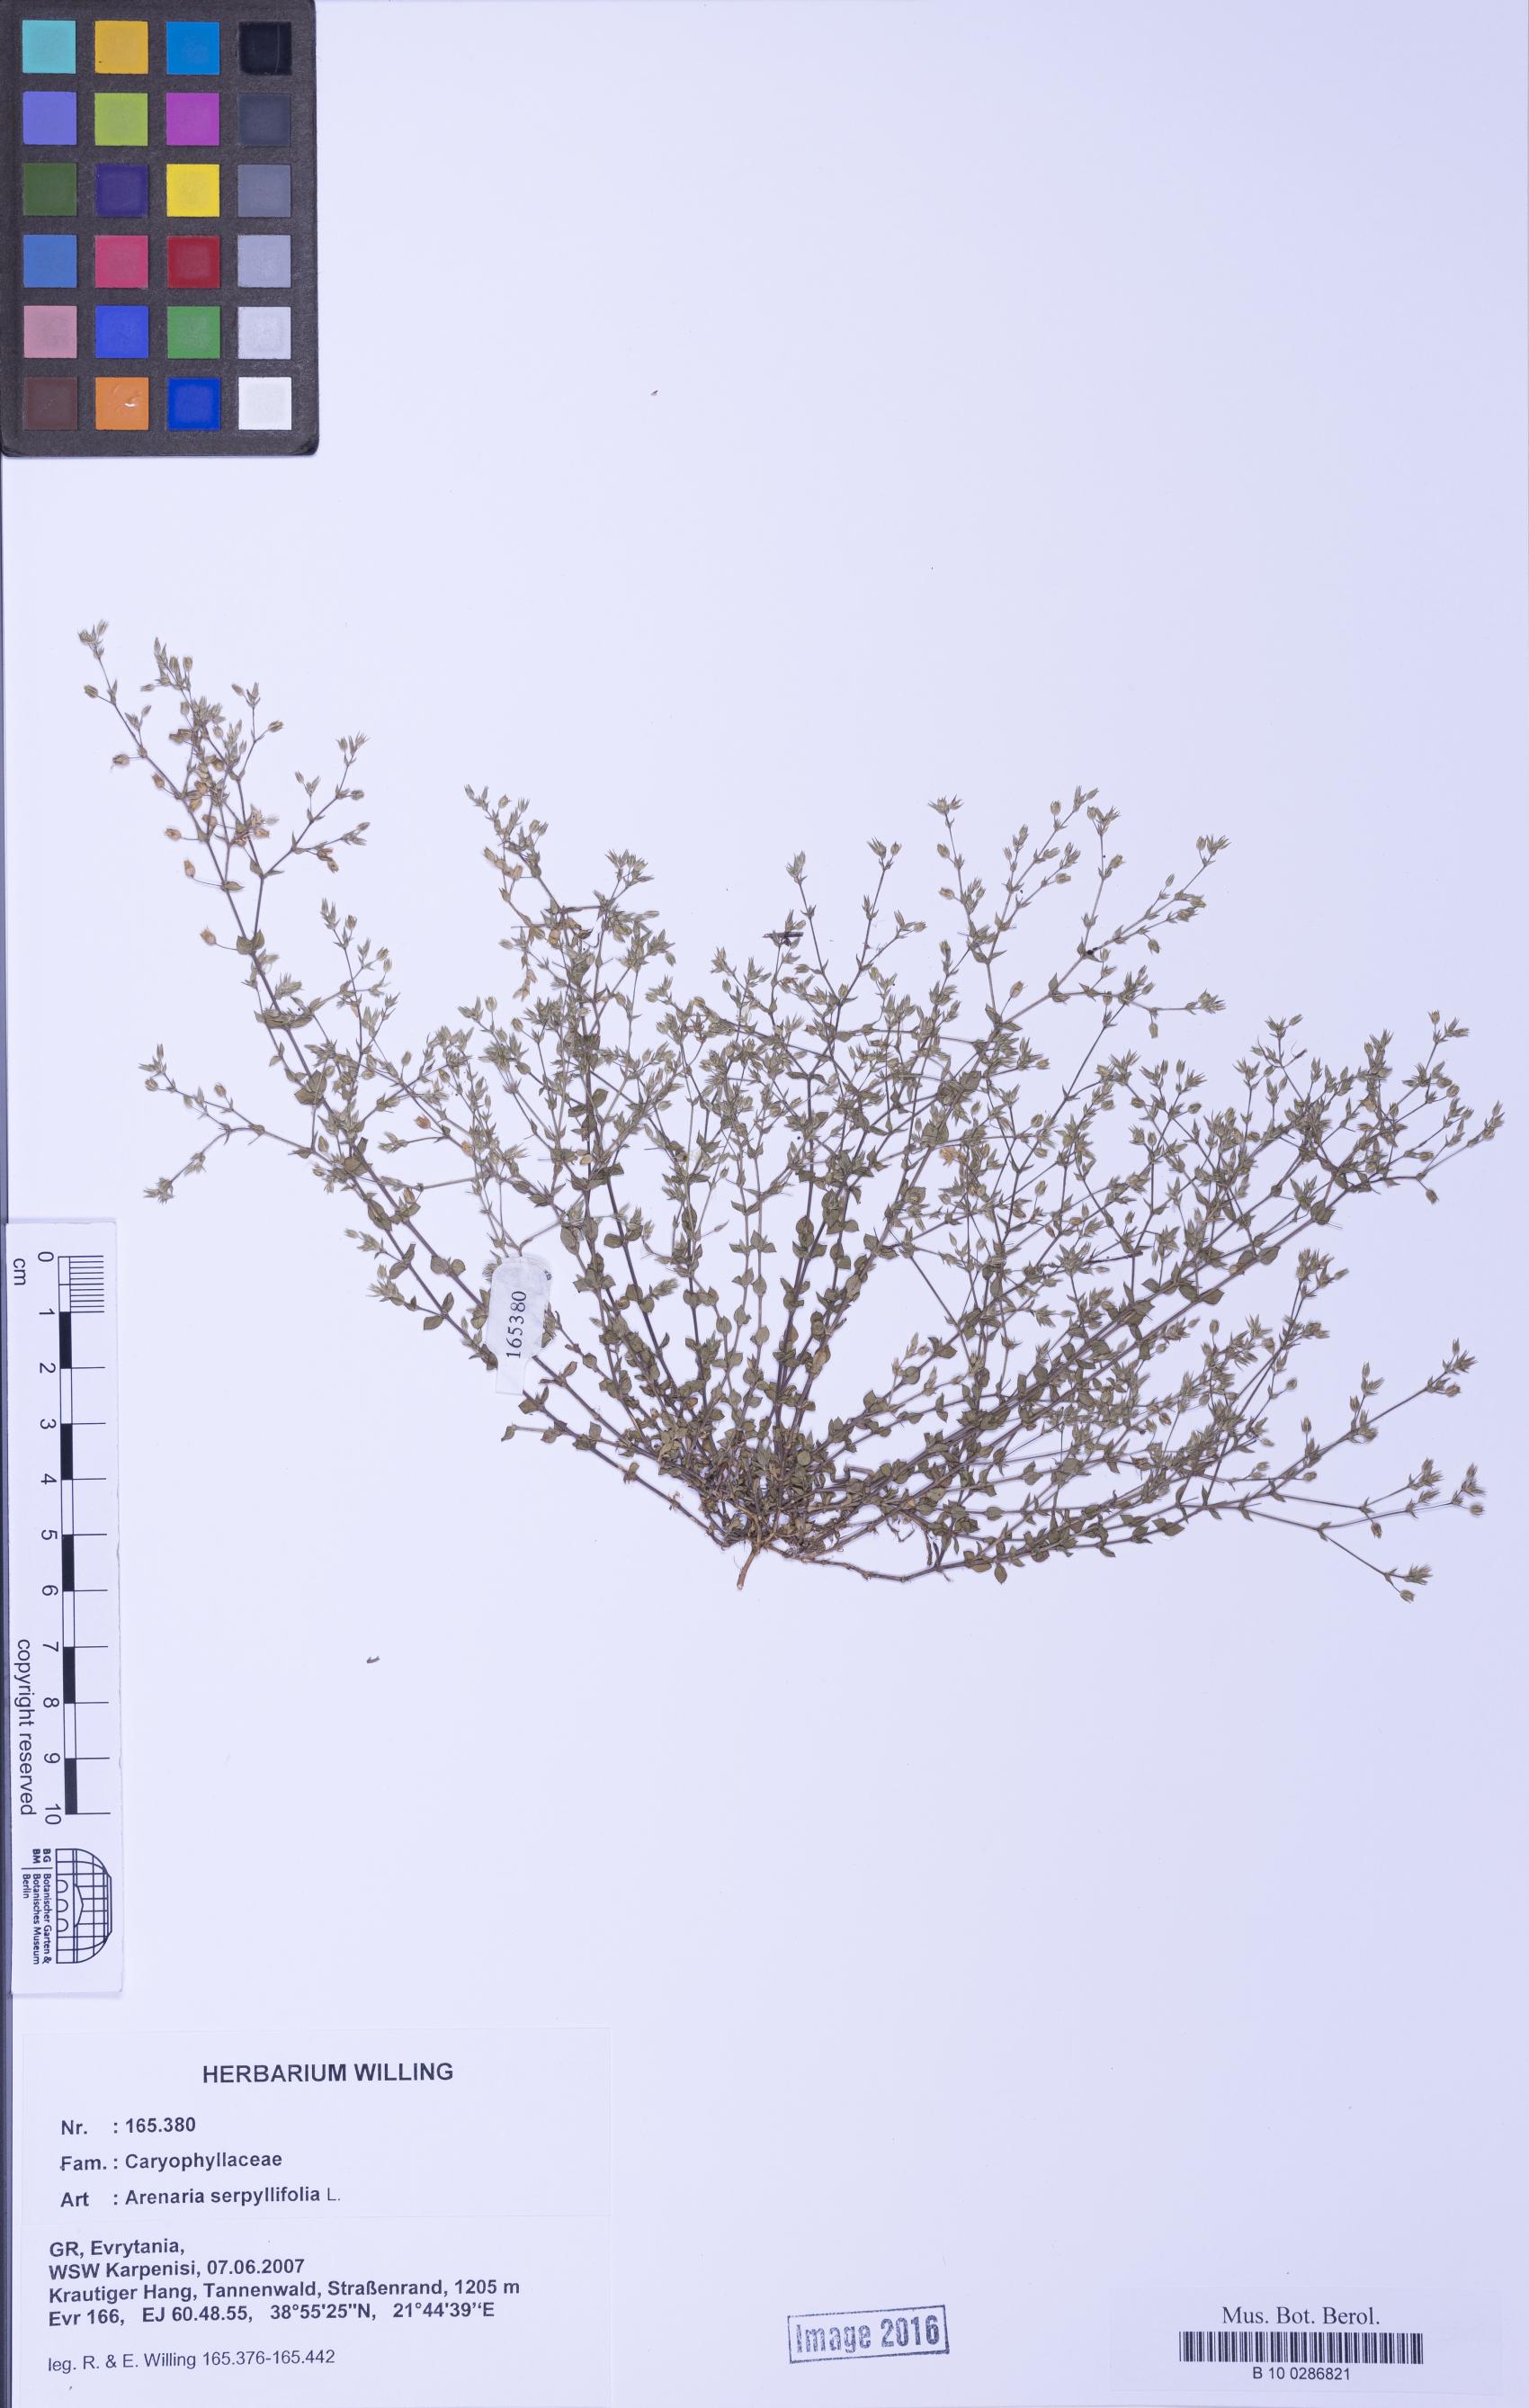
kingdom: Plantae
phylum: Tracheophyta
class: Magnoliopsida
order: Caryophyllales
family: Caryophyllaceae
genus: Arenaria
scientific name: Arenaria serpyllifolia
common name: Thyme-leaved sandwort
